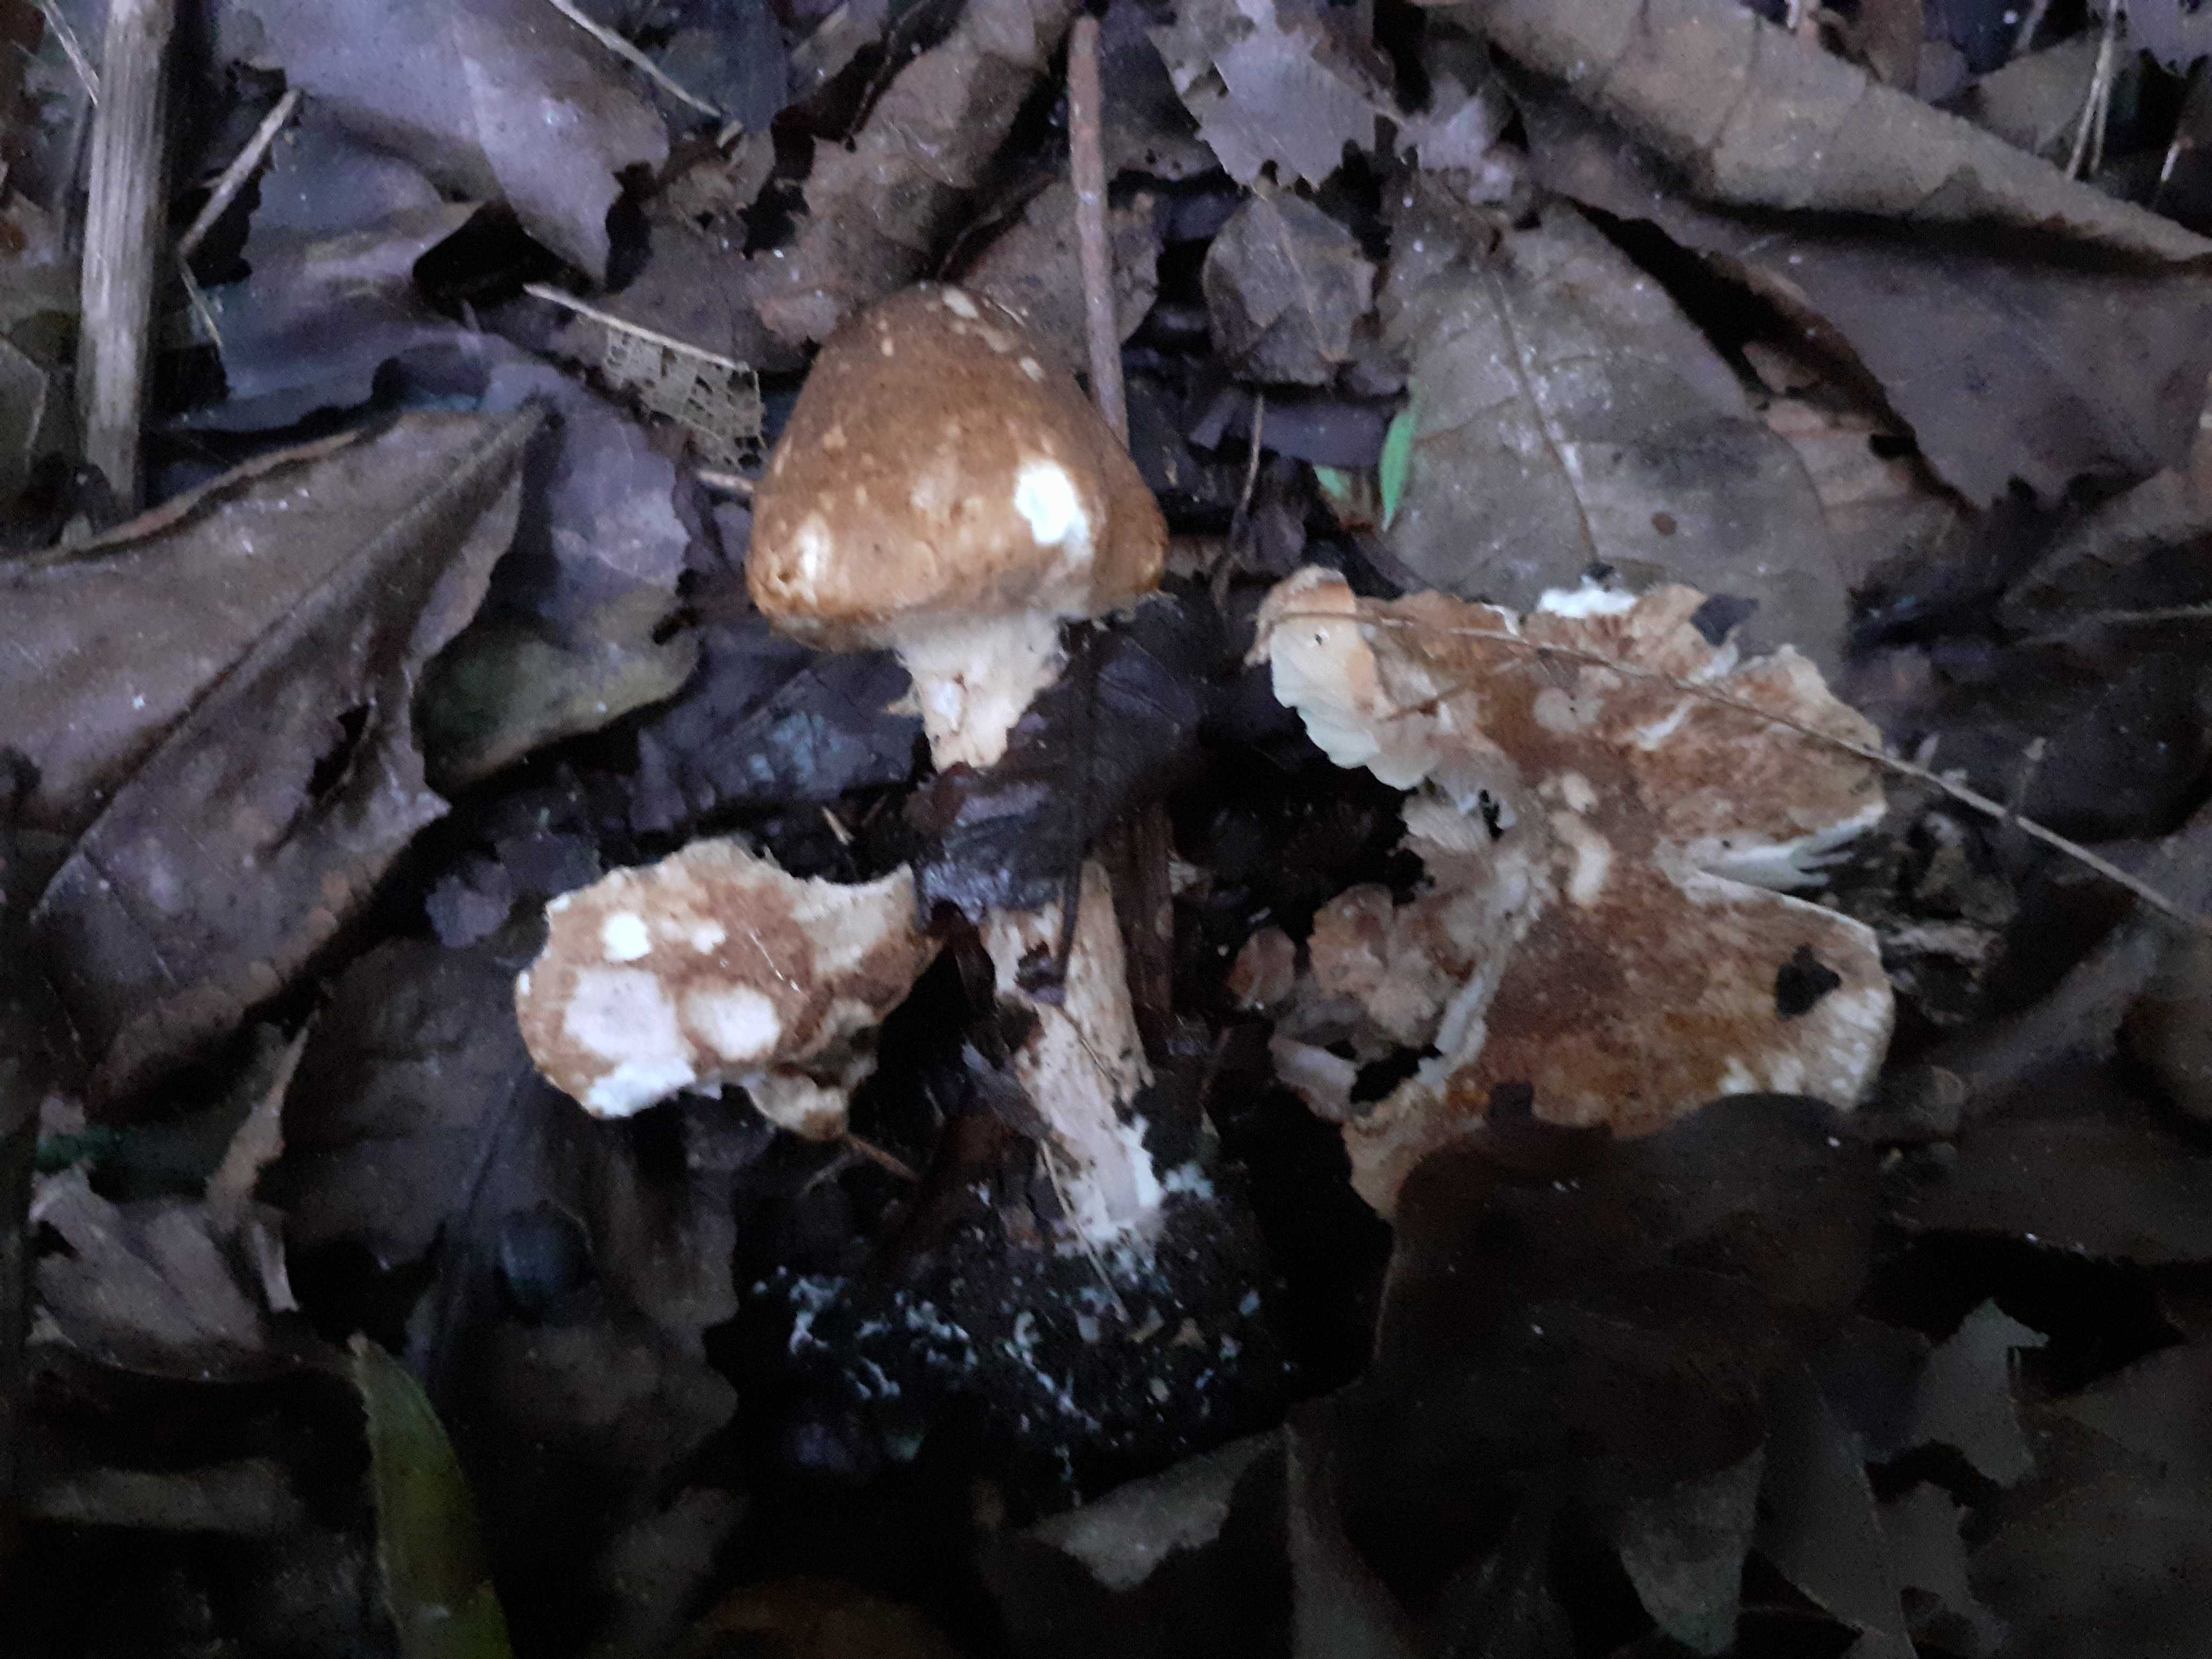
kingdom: Fungi
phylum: Basidiomycota
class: Agaricomycetes
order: Agaricales
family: Agaricaceae
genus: Leucocoprinus
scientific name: Leucocoprinus straminellus
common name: rustbrun parasolhat
